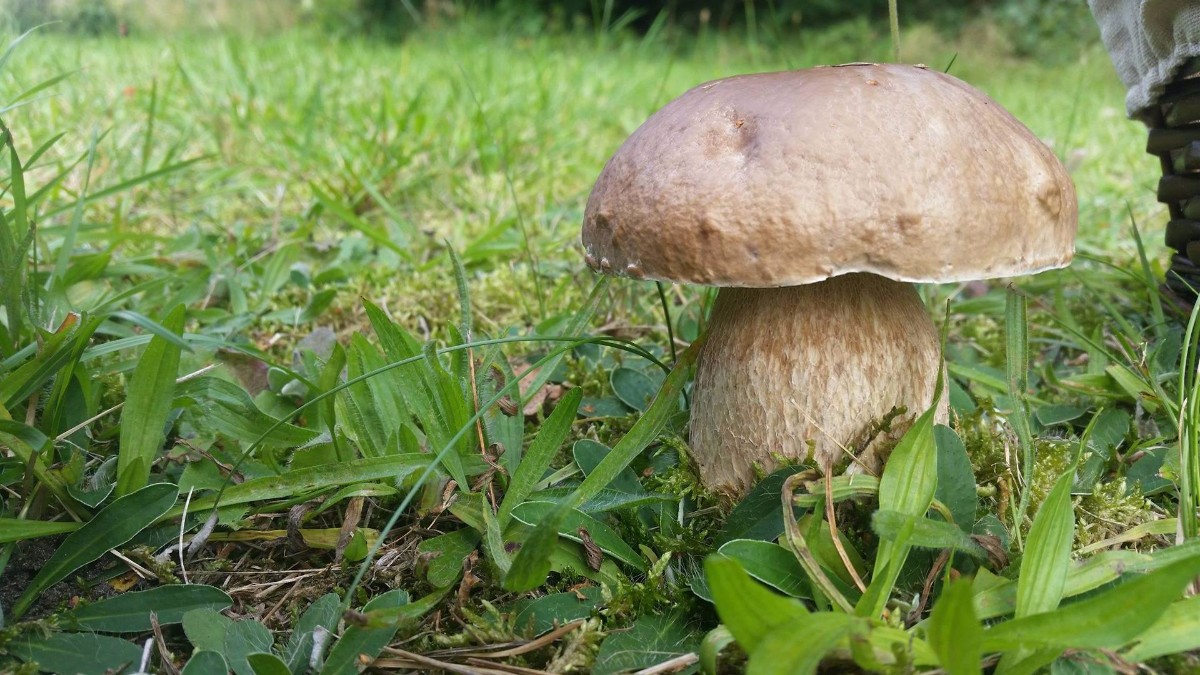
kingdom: Fungi
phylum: Basidiomycota
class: Agaricomycetes
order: Boletales
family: Boletaceae
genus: Boletus
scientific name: Boletus reticulatus
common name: sommer-rørhat
